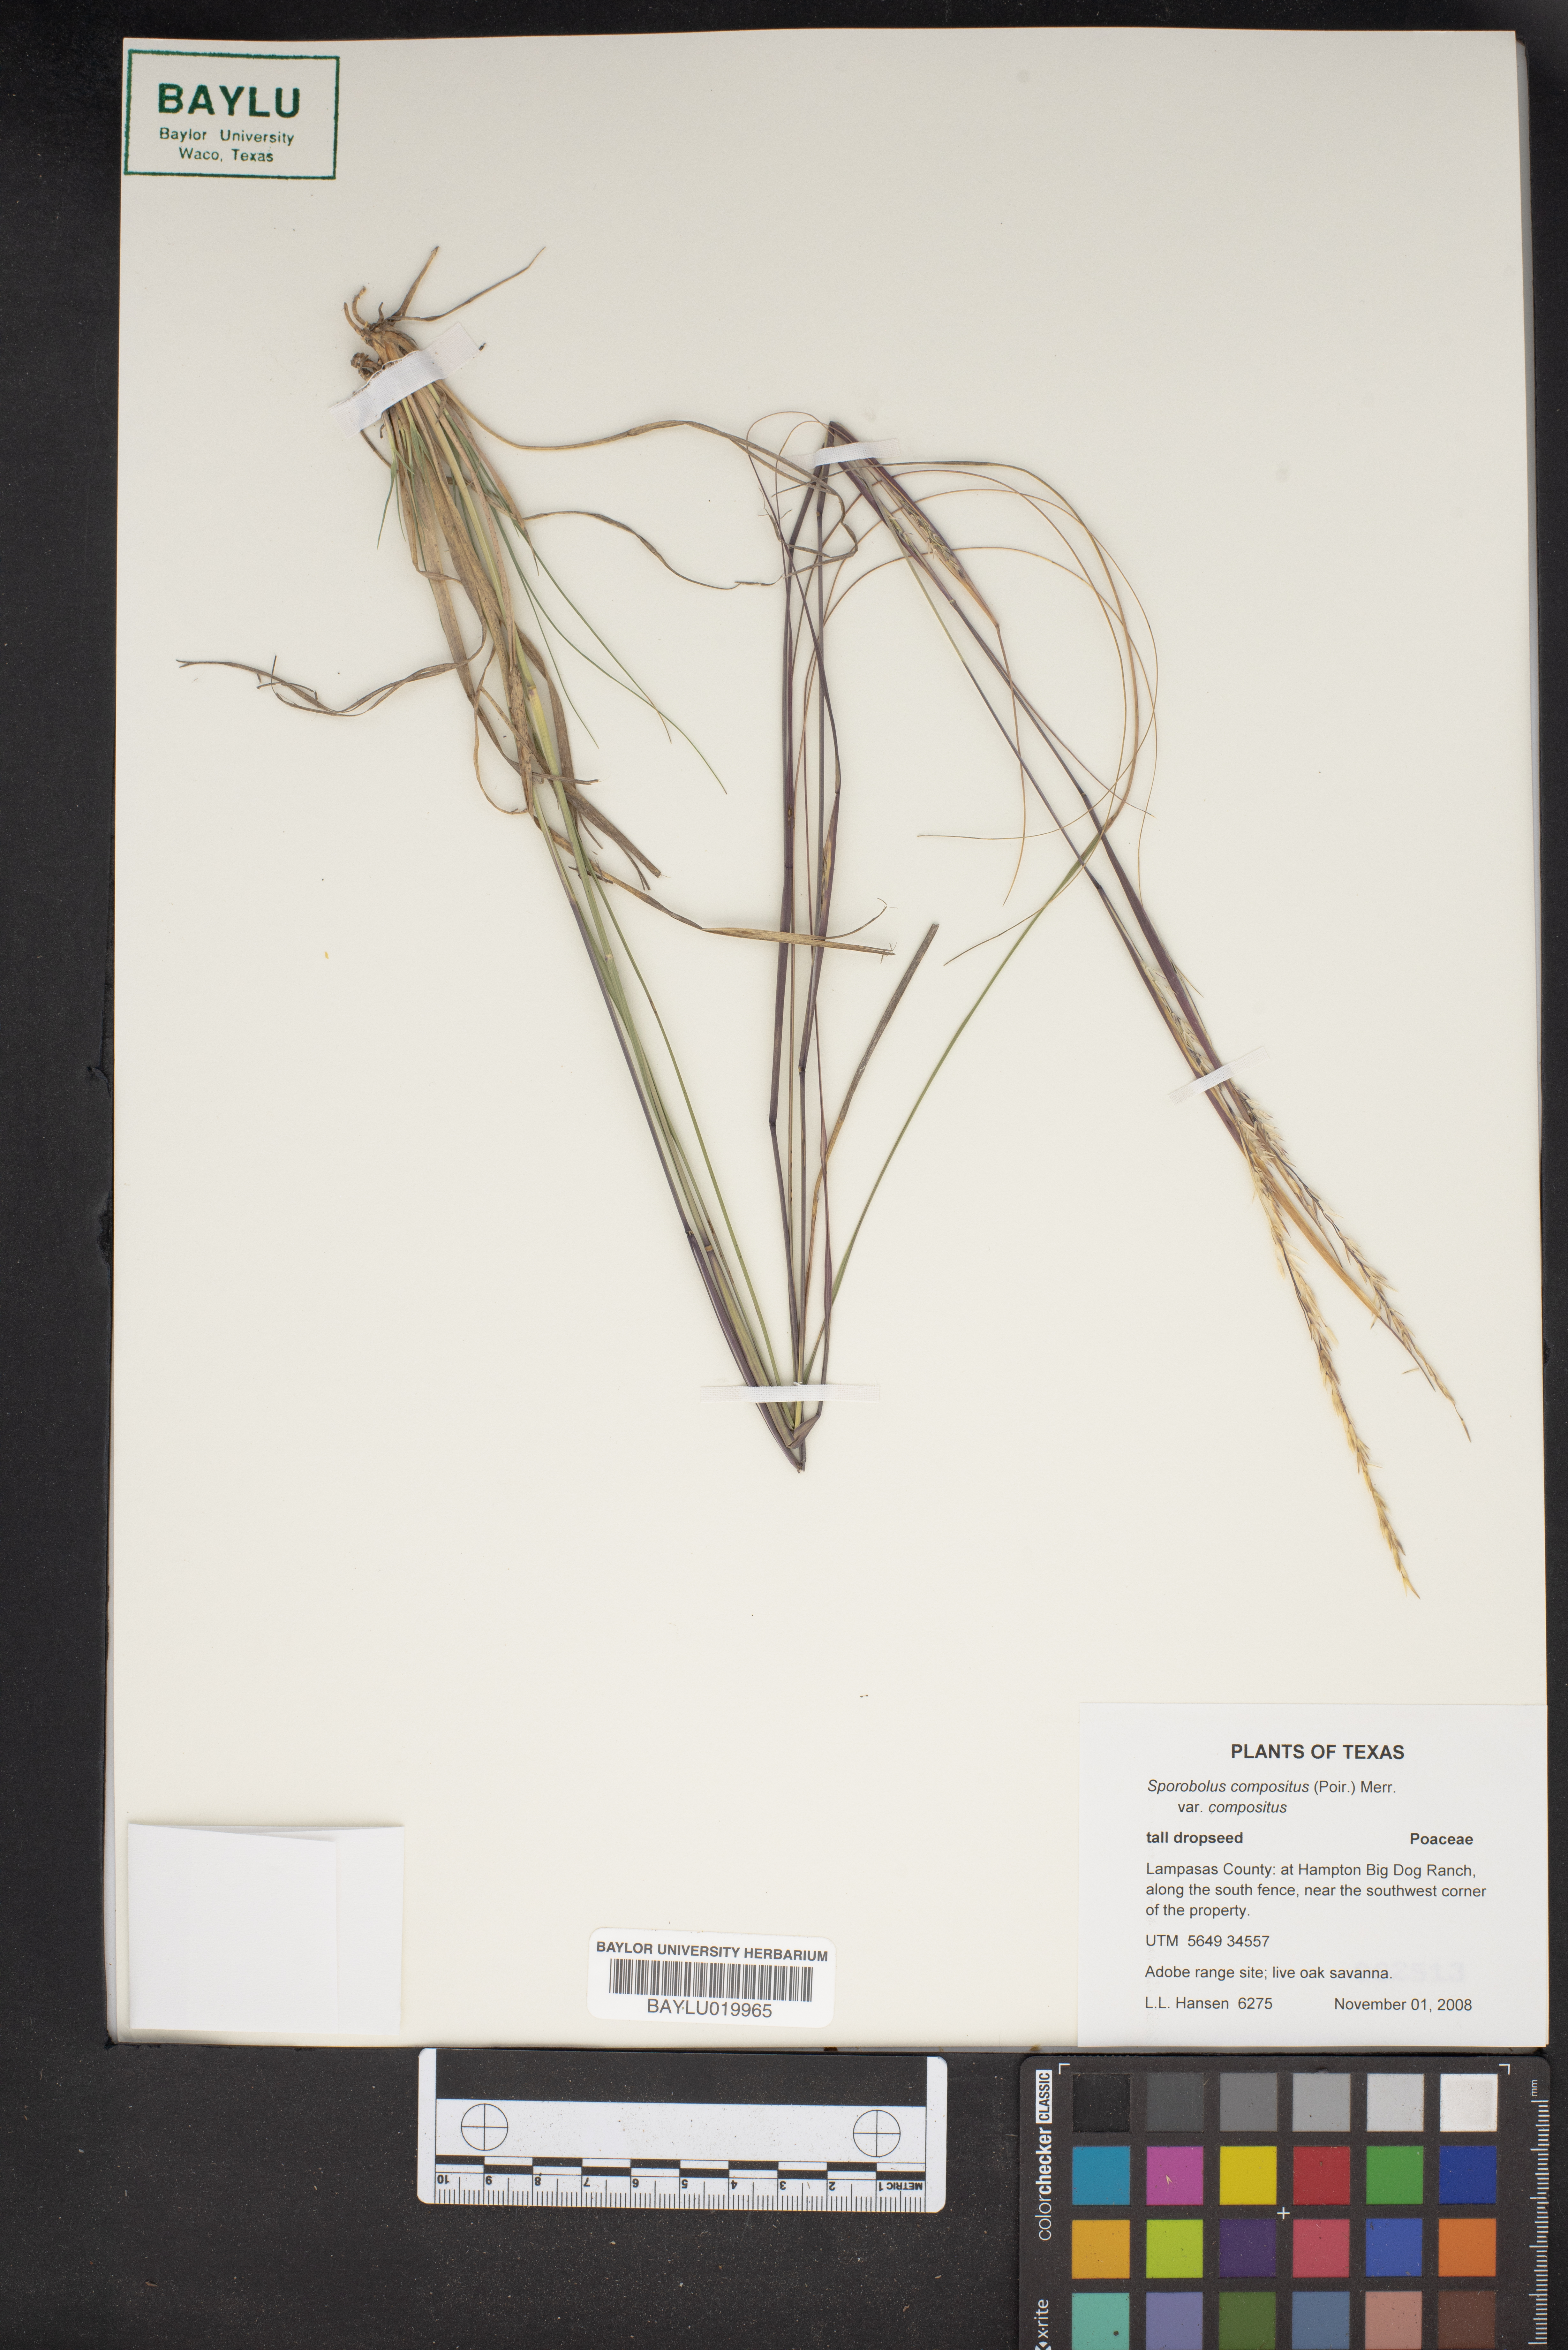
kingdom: Plantae
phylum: Tracheophyta
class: Liliopsida
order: Poales
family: Poaceae
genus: Sporobolus
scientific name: Sporobolus compositus
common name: Rough dropseed
